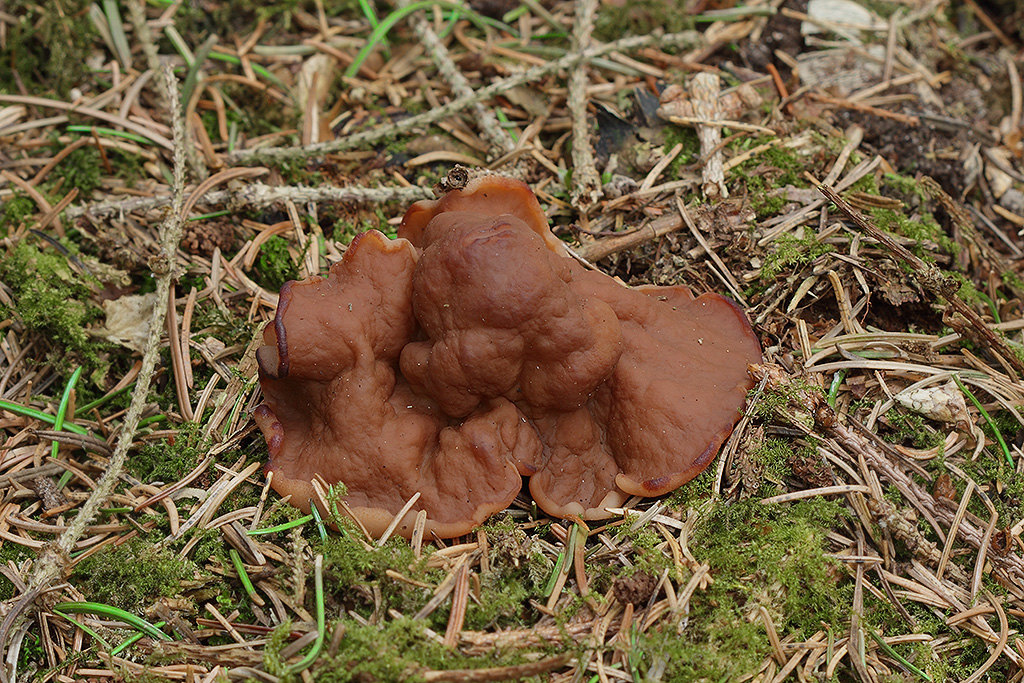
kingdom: Fungi
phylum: Ascomycota
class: Pezizomycetes
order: Pezizales
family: Discinaceae
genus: Discina
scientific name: Discina ancilis
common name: udbredt stenmorkel
